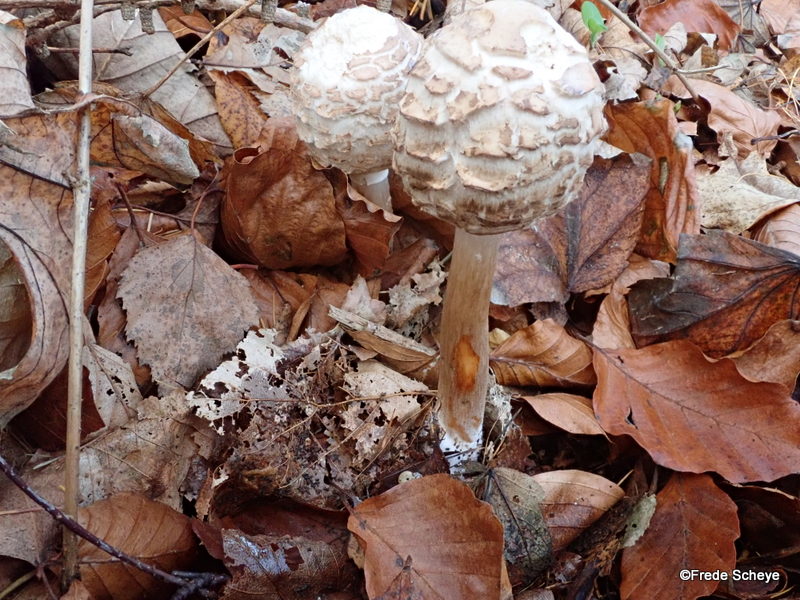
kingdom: Fungi
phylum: Basidiomycota
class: Agaricomycetes
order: Agaricales
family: Agaricaceae
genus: Chlorophyllum
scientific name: Chlorophyllum olivieri
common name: almindelig rabarberhat
